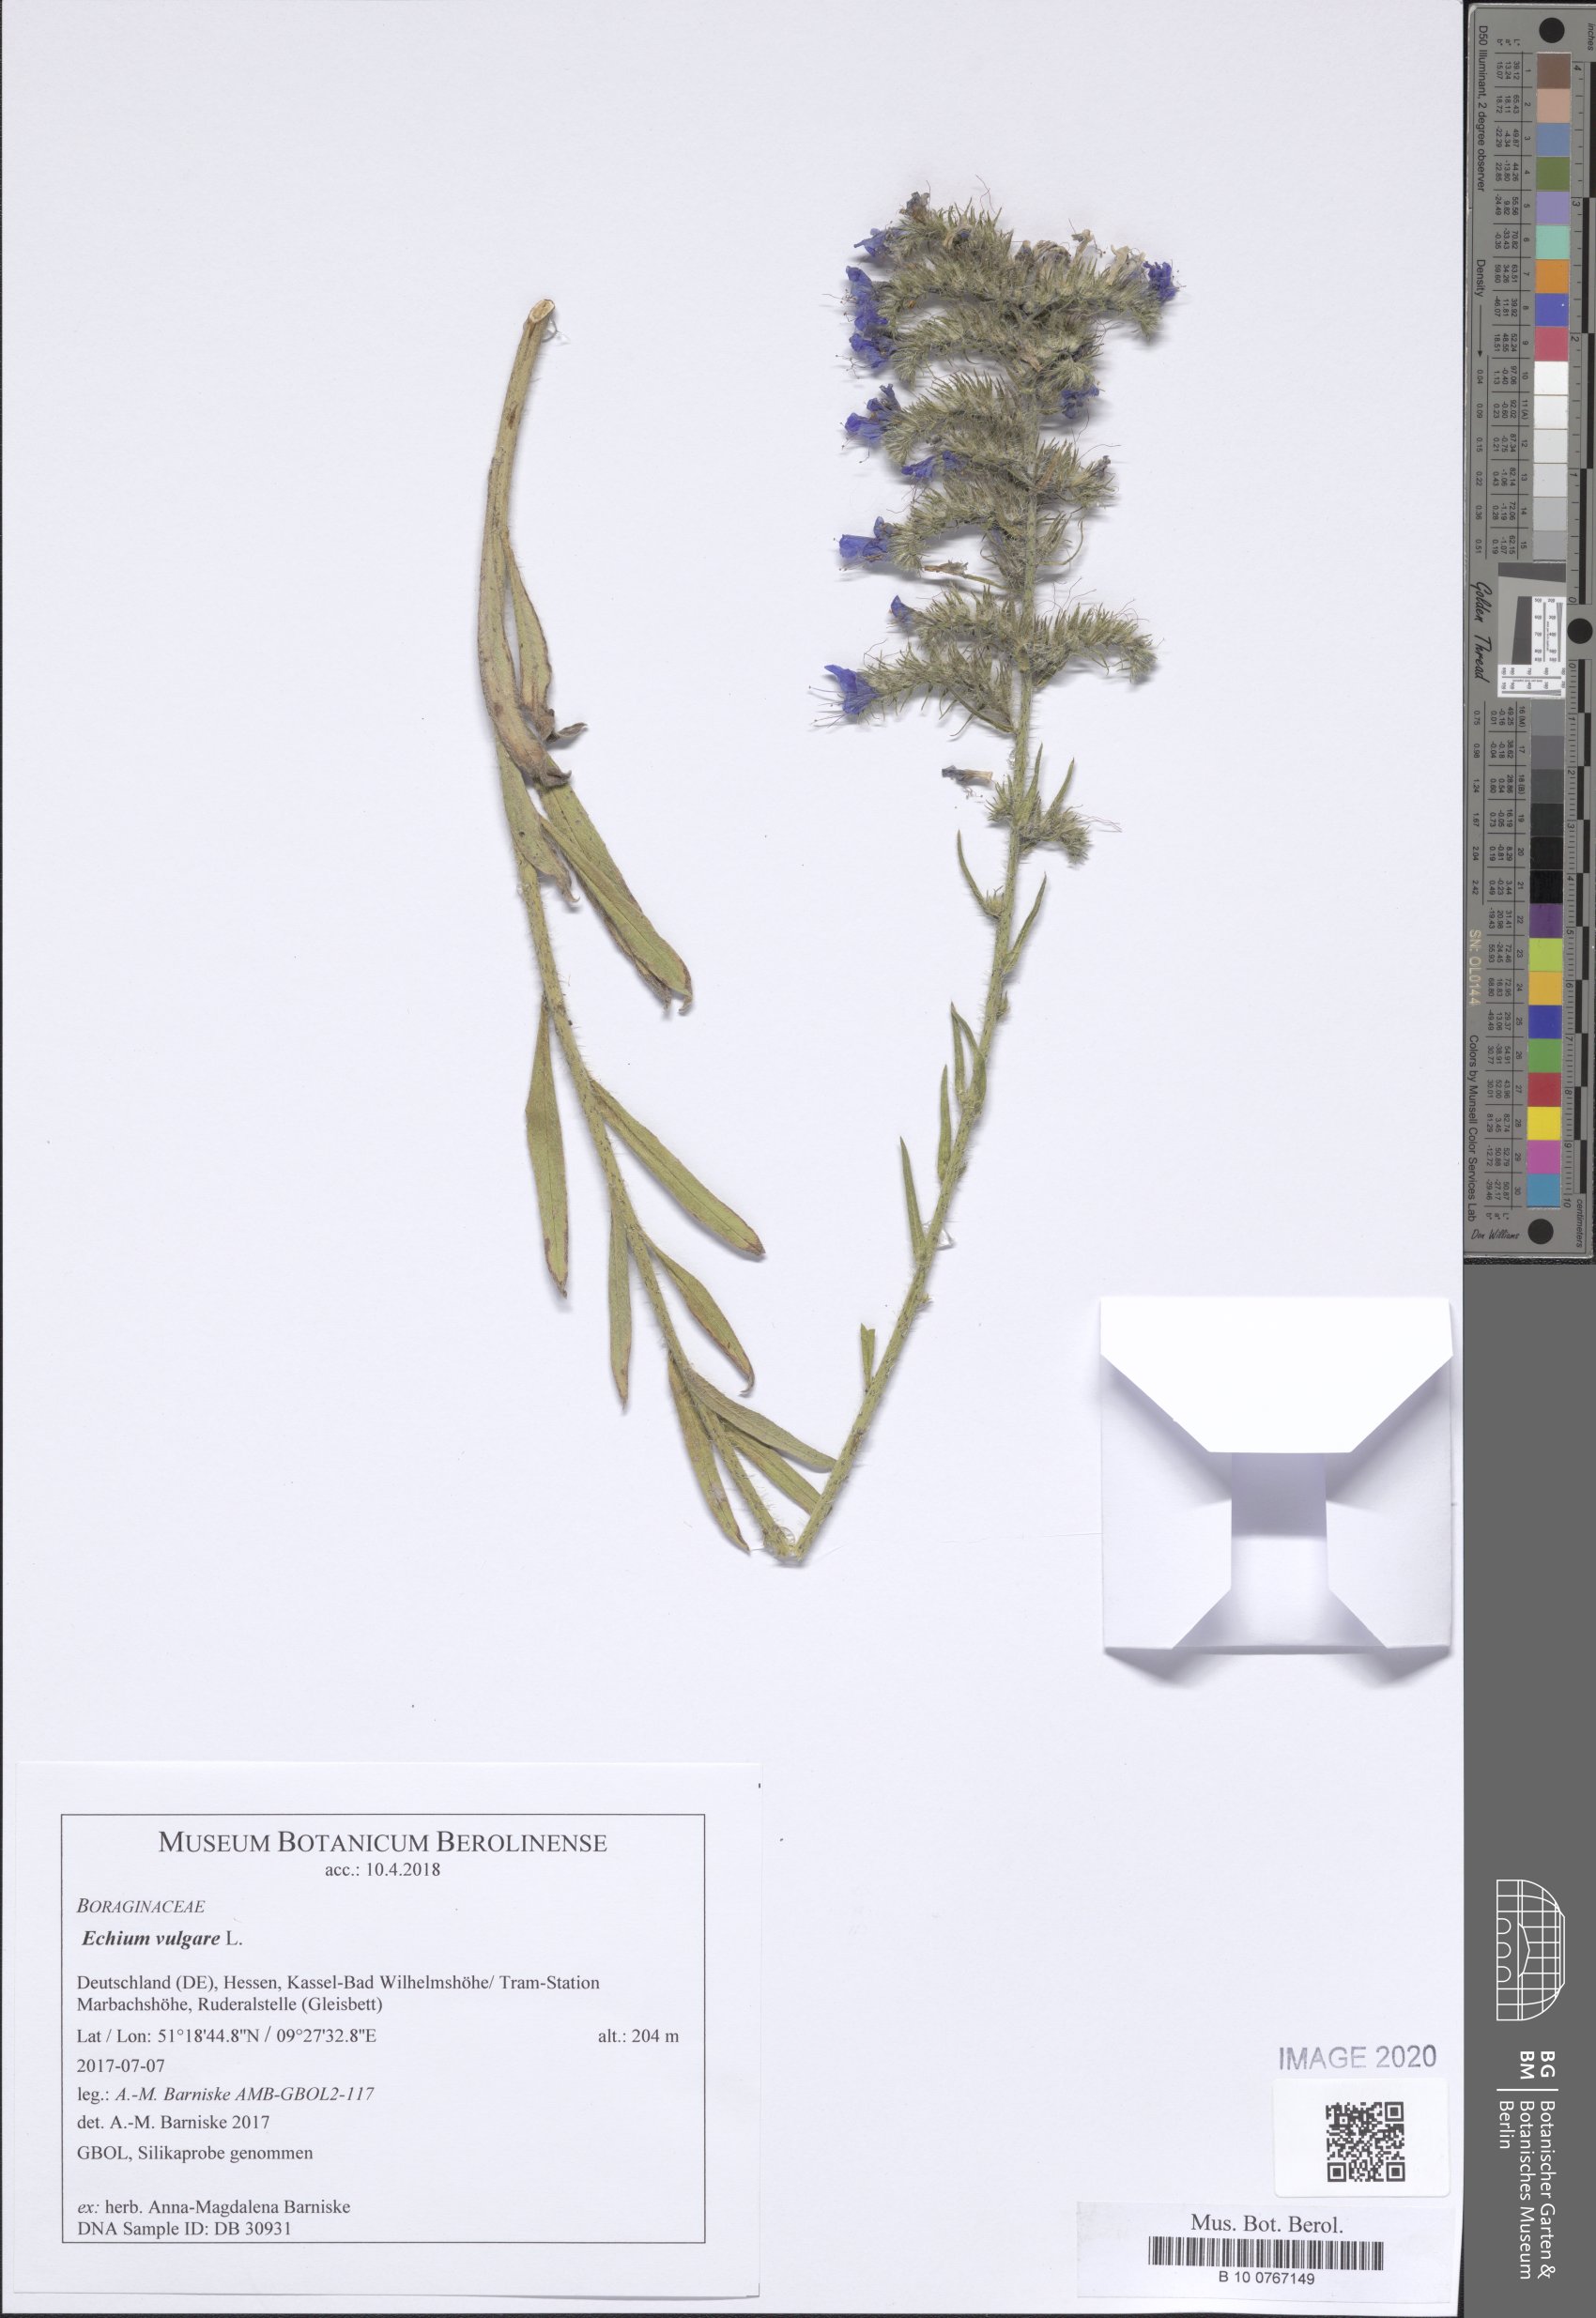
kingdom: Plantae
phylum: Tracheophyta
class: Magnoliopsida
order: Boraginales
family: Boraginaceae
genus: Echium
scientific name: Echium vulgare
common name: Common viper's bugloss
